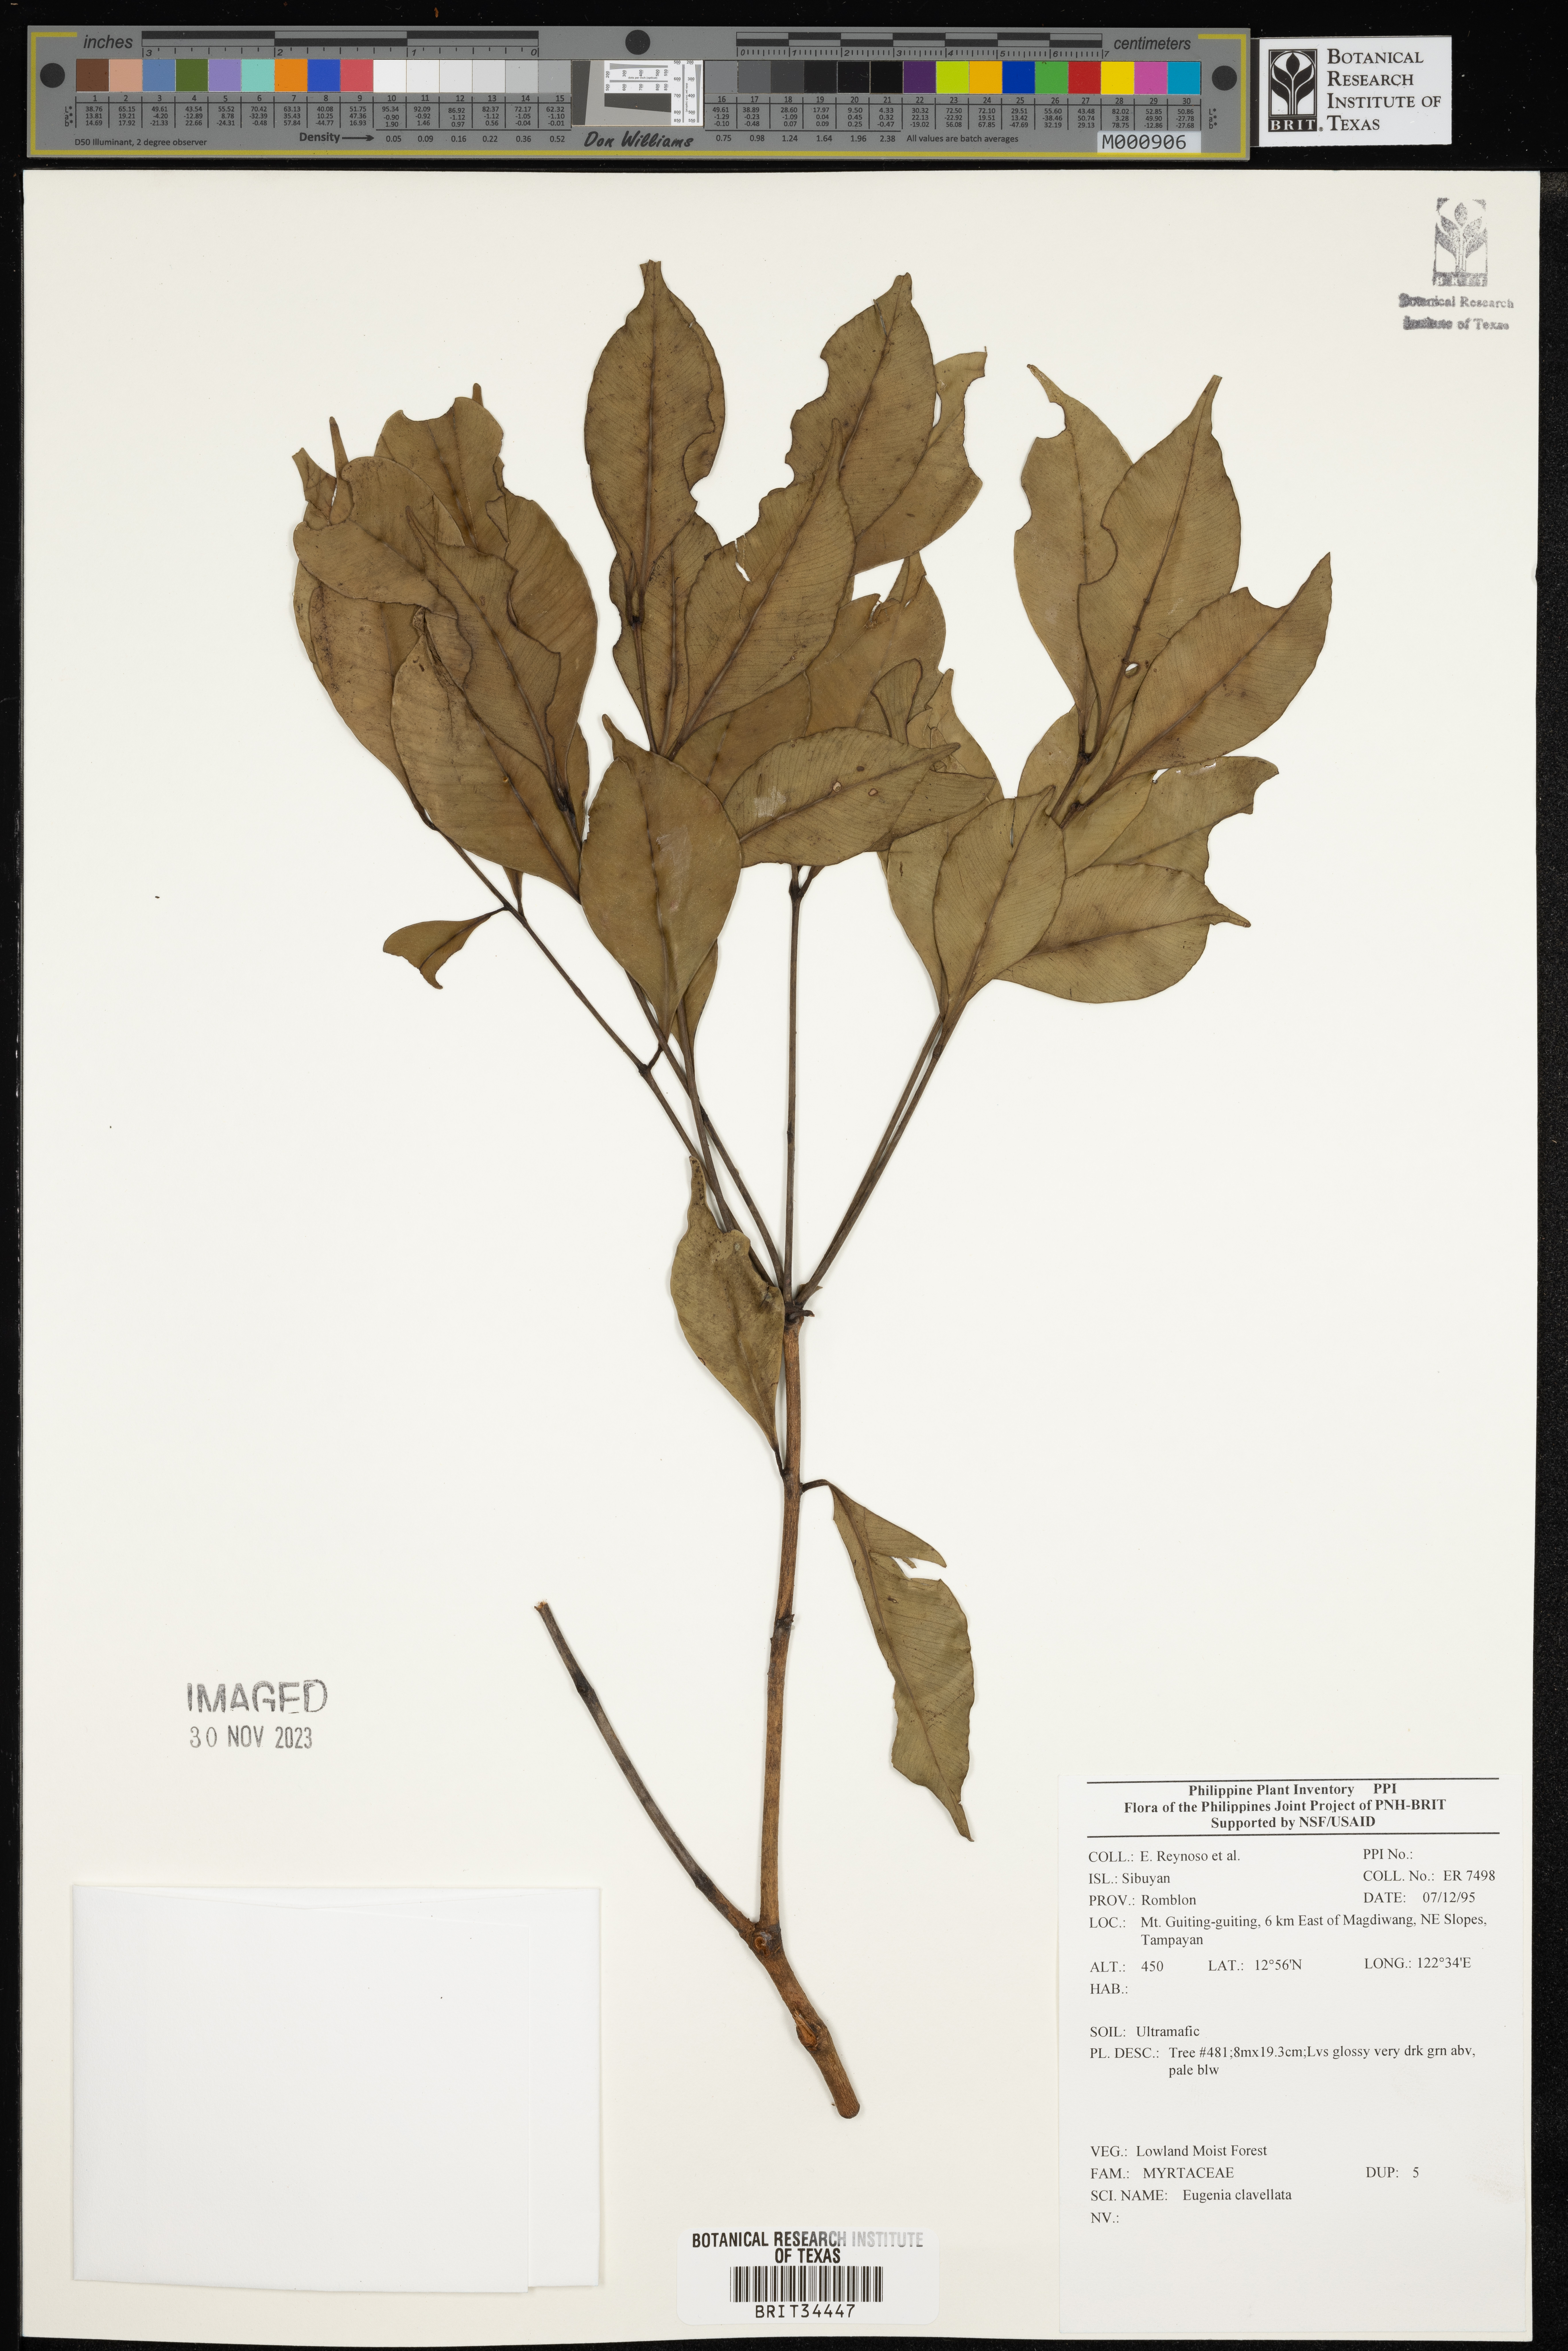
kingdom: Plantae
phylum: Tracheophyta
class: Magnoliopsida
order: Myrtales
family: Myrtaceae
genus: Eugenia
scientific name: Eugenia
